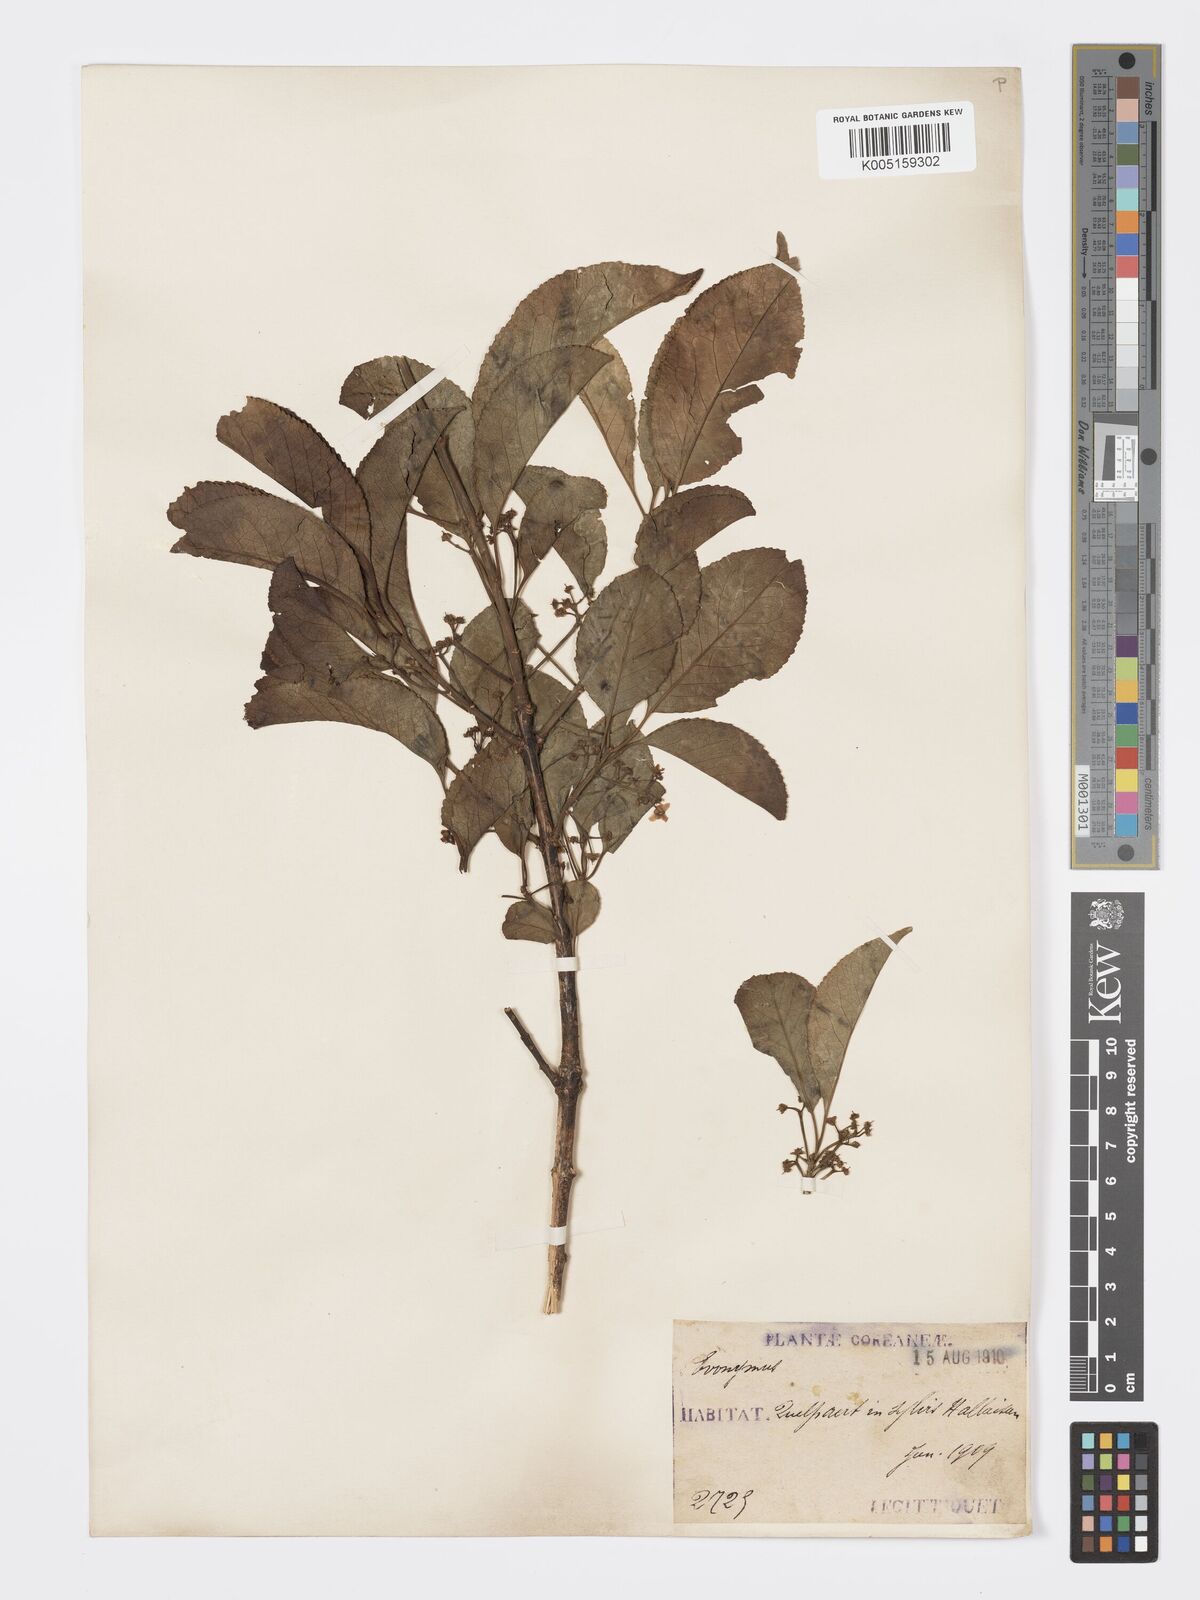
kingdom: Plantae
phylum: Tracheophyta
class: Magnoliopsida
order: Celastrales
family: Celastraceae
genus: Euonymus
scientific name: Euonymus maackii
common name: Hamilton's spindletree
